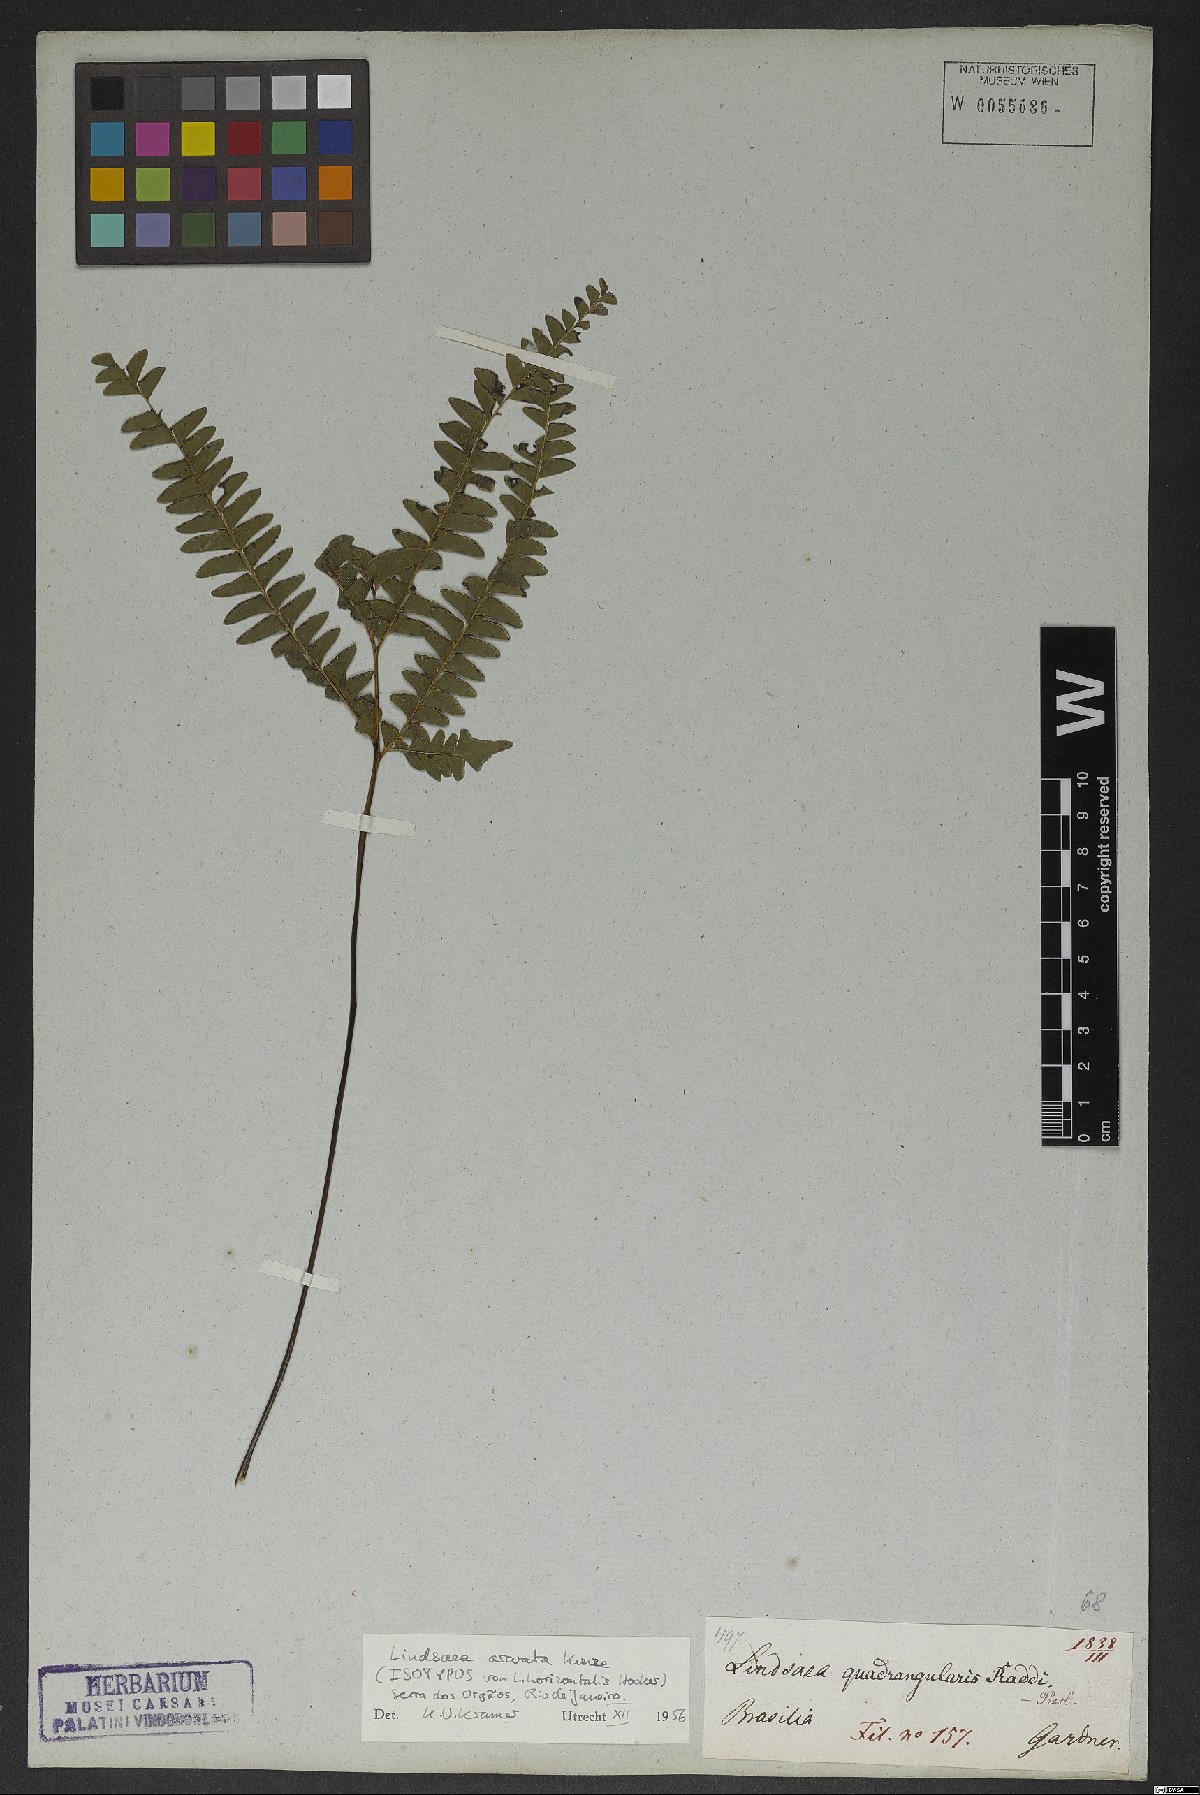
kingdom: Plantae
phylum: Tracheophyta
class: Polypodiopsida
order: Polypodiales
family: Lindsaeaceae
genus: Lindsaea
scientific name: Lindsaea arcuata
